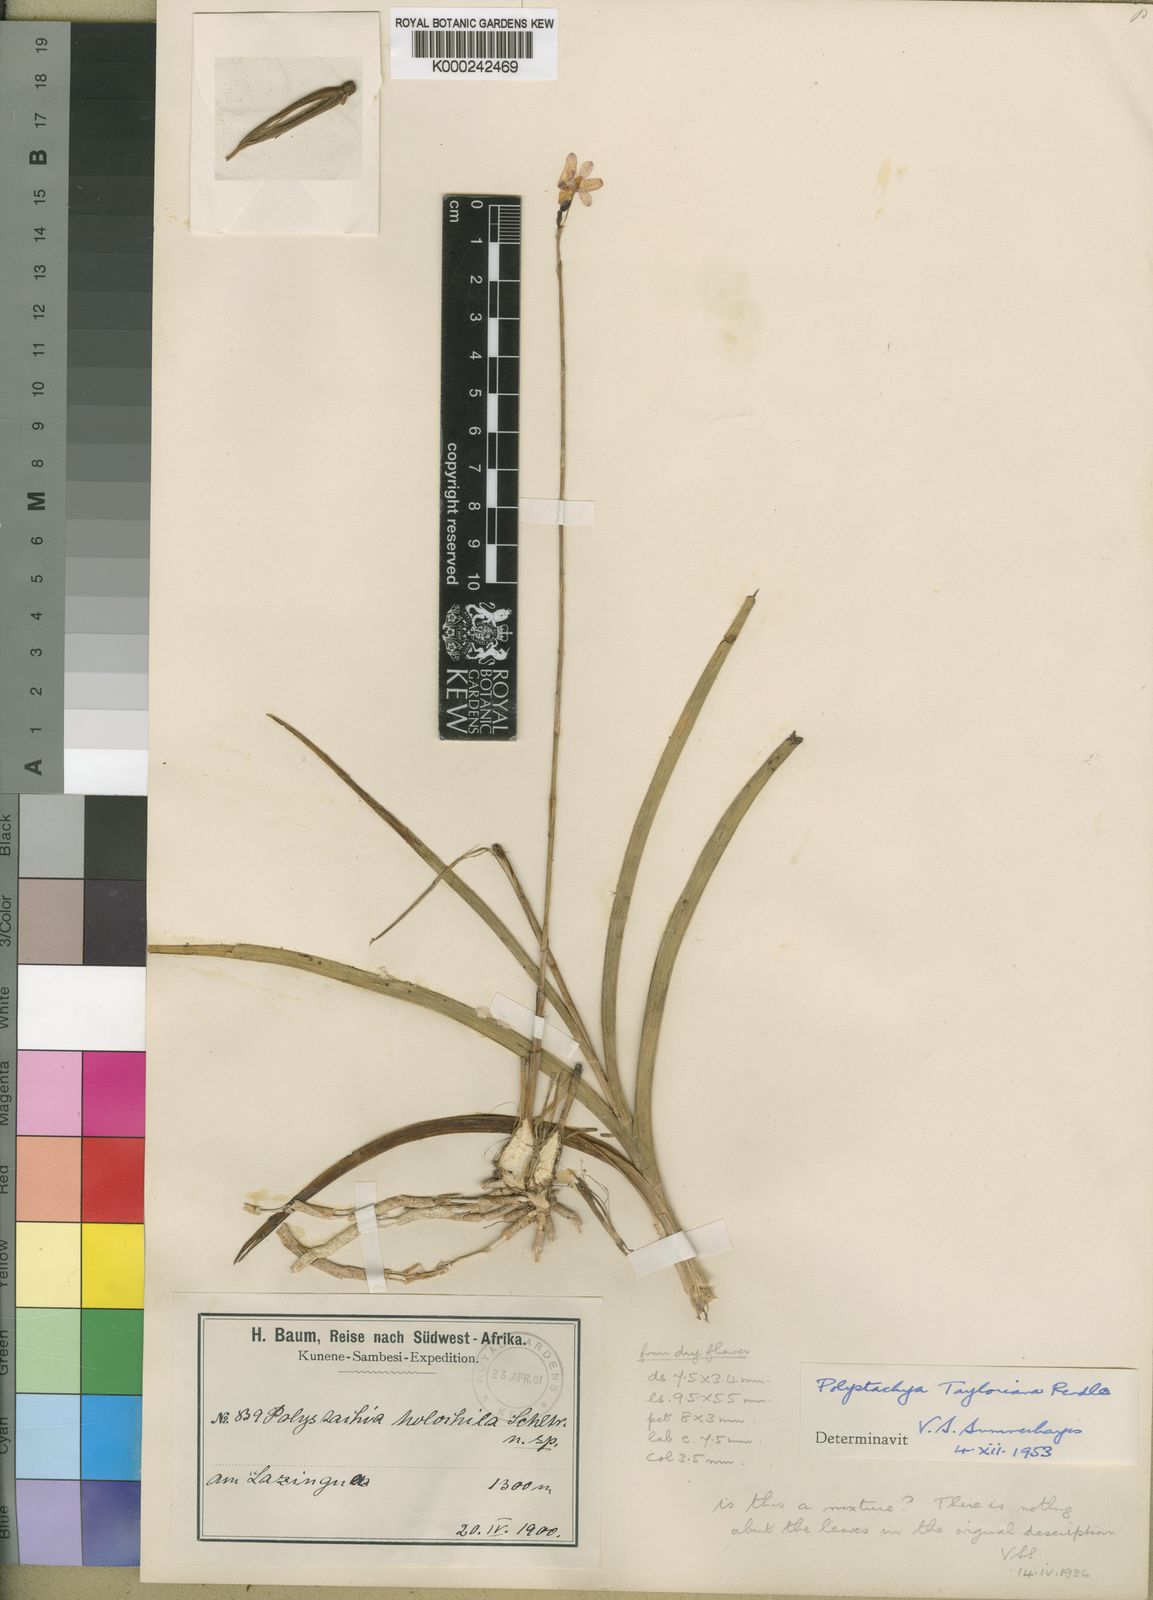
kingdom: Plantae
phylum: Tracheophyta
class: Liliopsida
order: Asparagales
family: Orchidaceae
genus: Polystachya
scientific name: Polystachya dendrobiiflora
